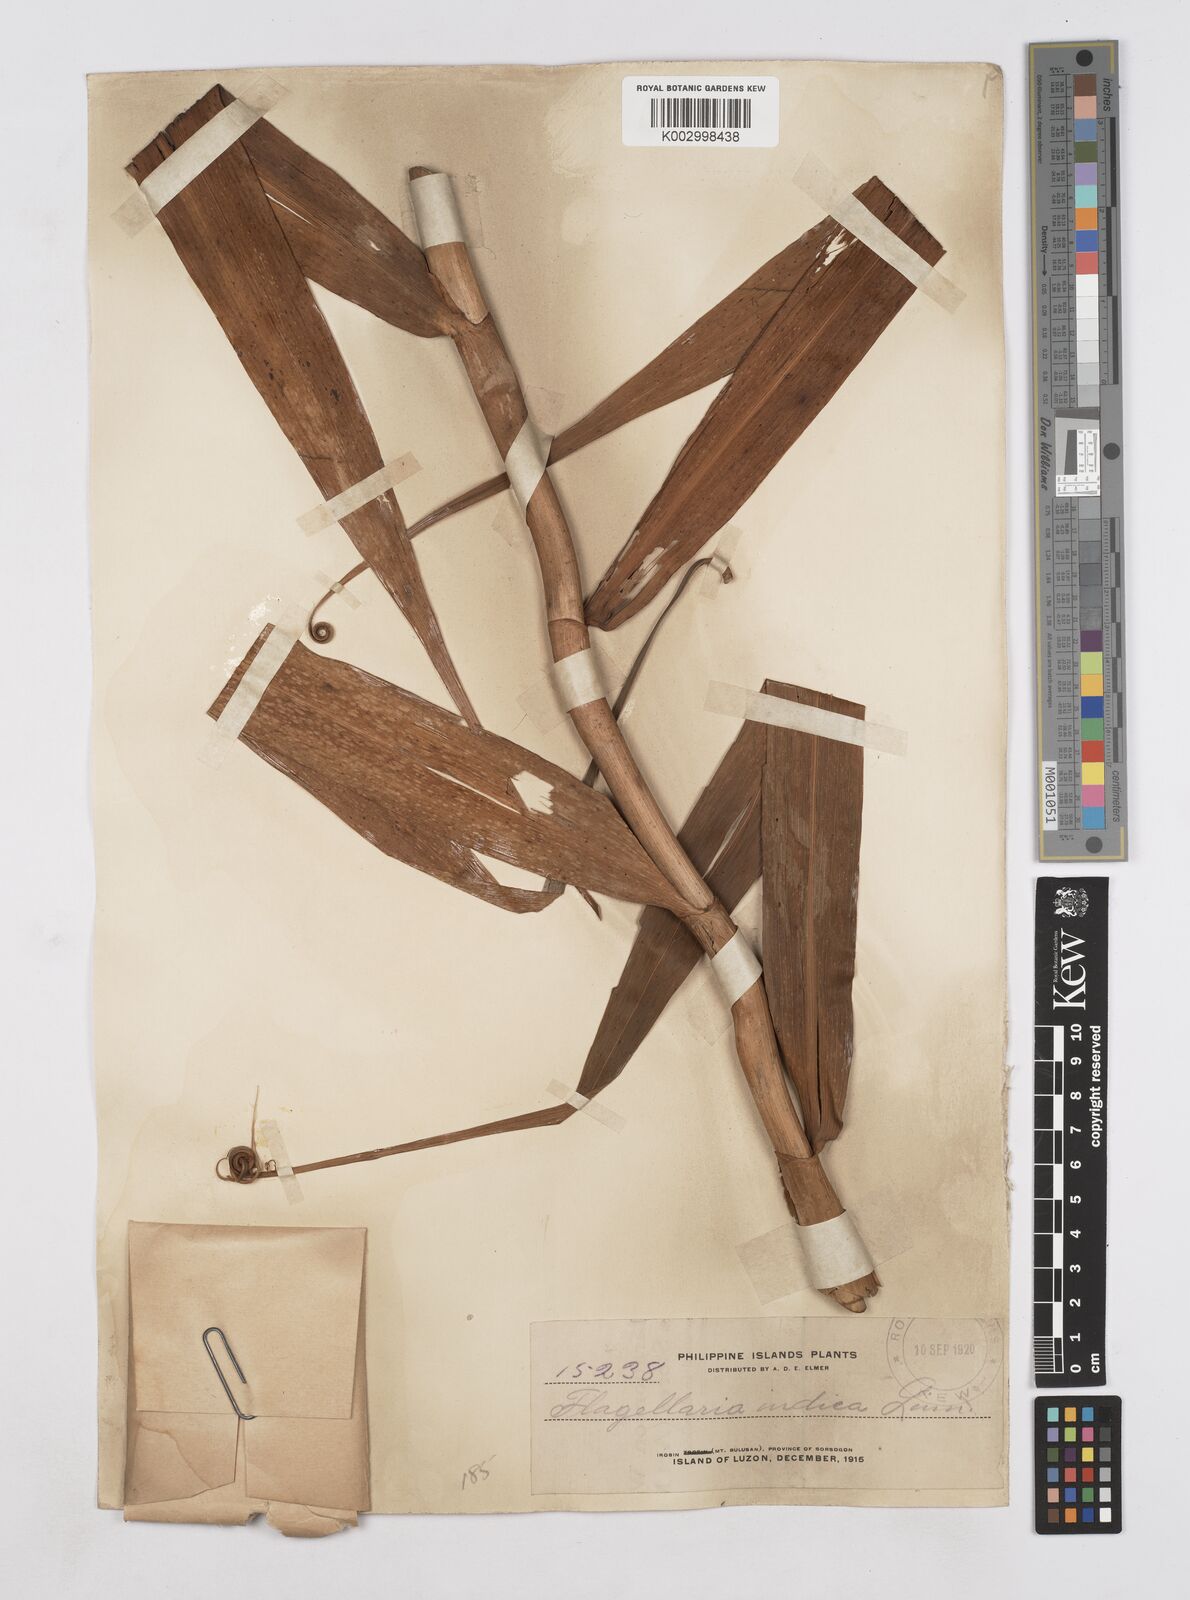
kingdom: Plantae
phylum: Tracheophyta
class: Liliopsida
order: Poales
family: Flagellariaceae
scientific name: Flagellariaceae
